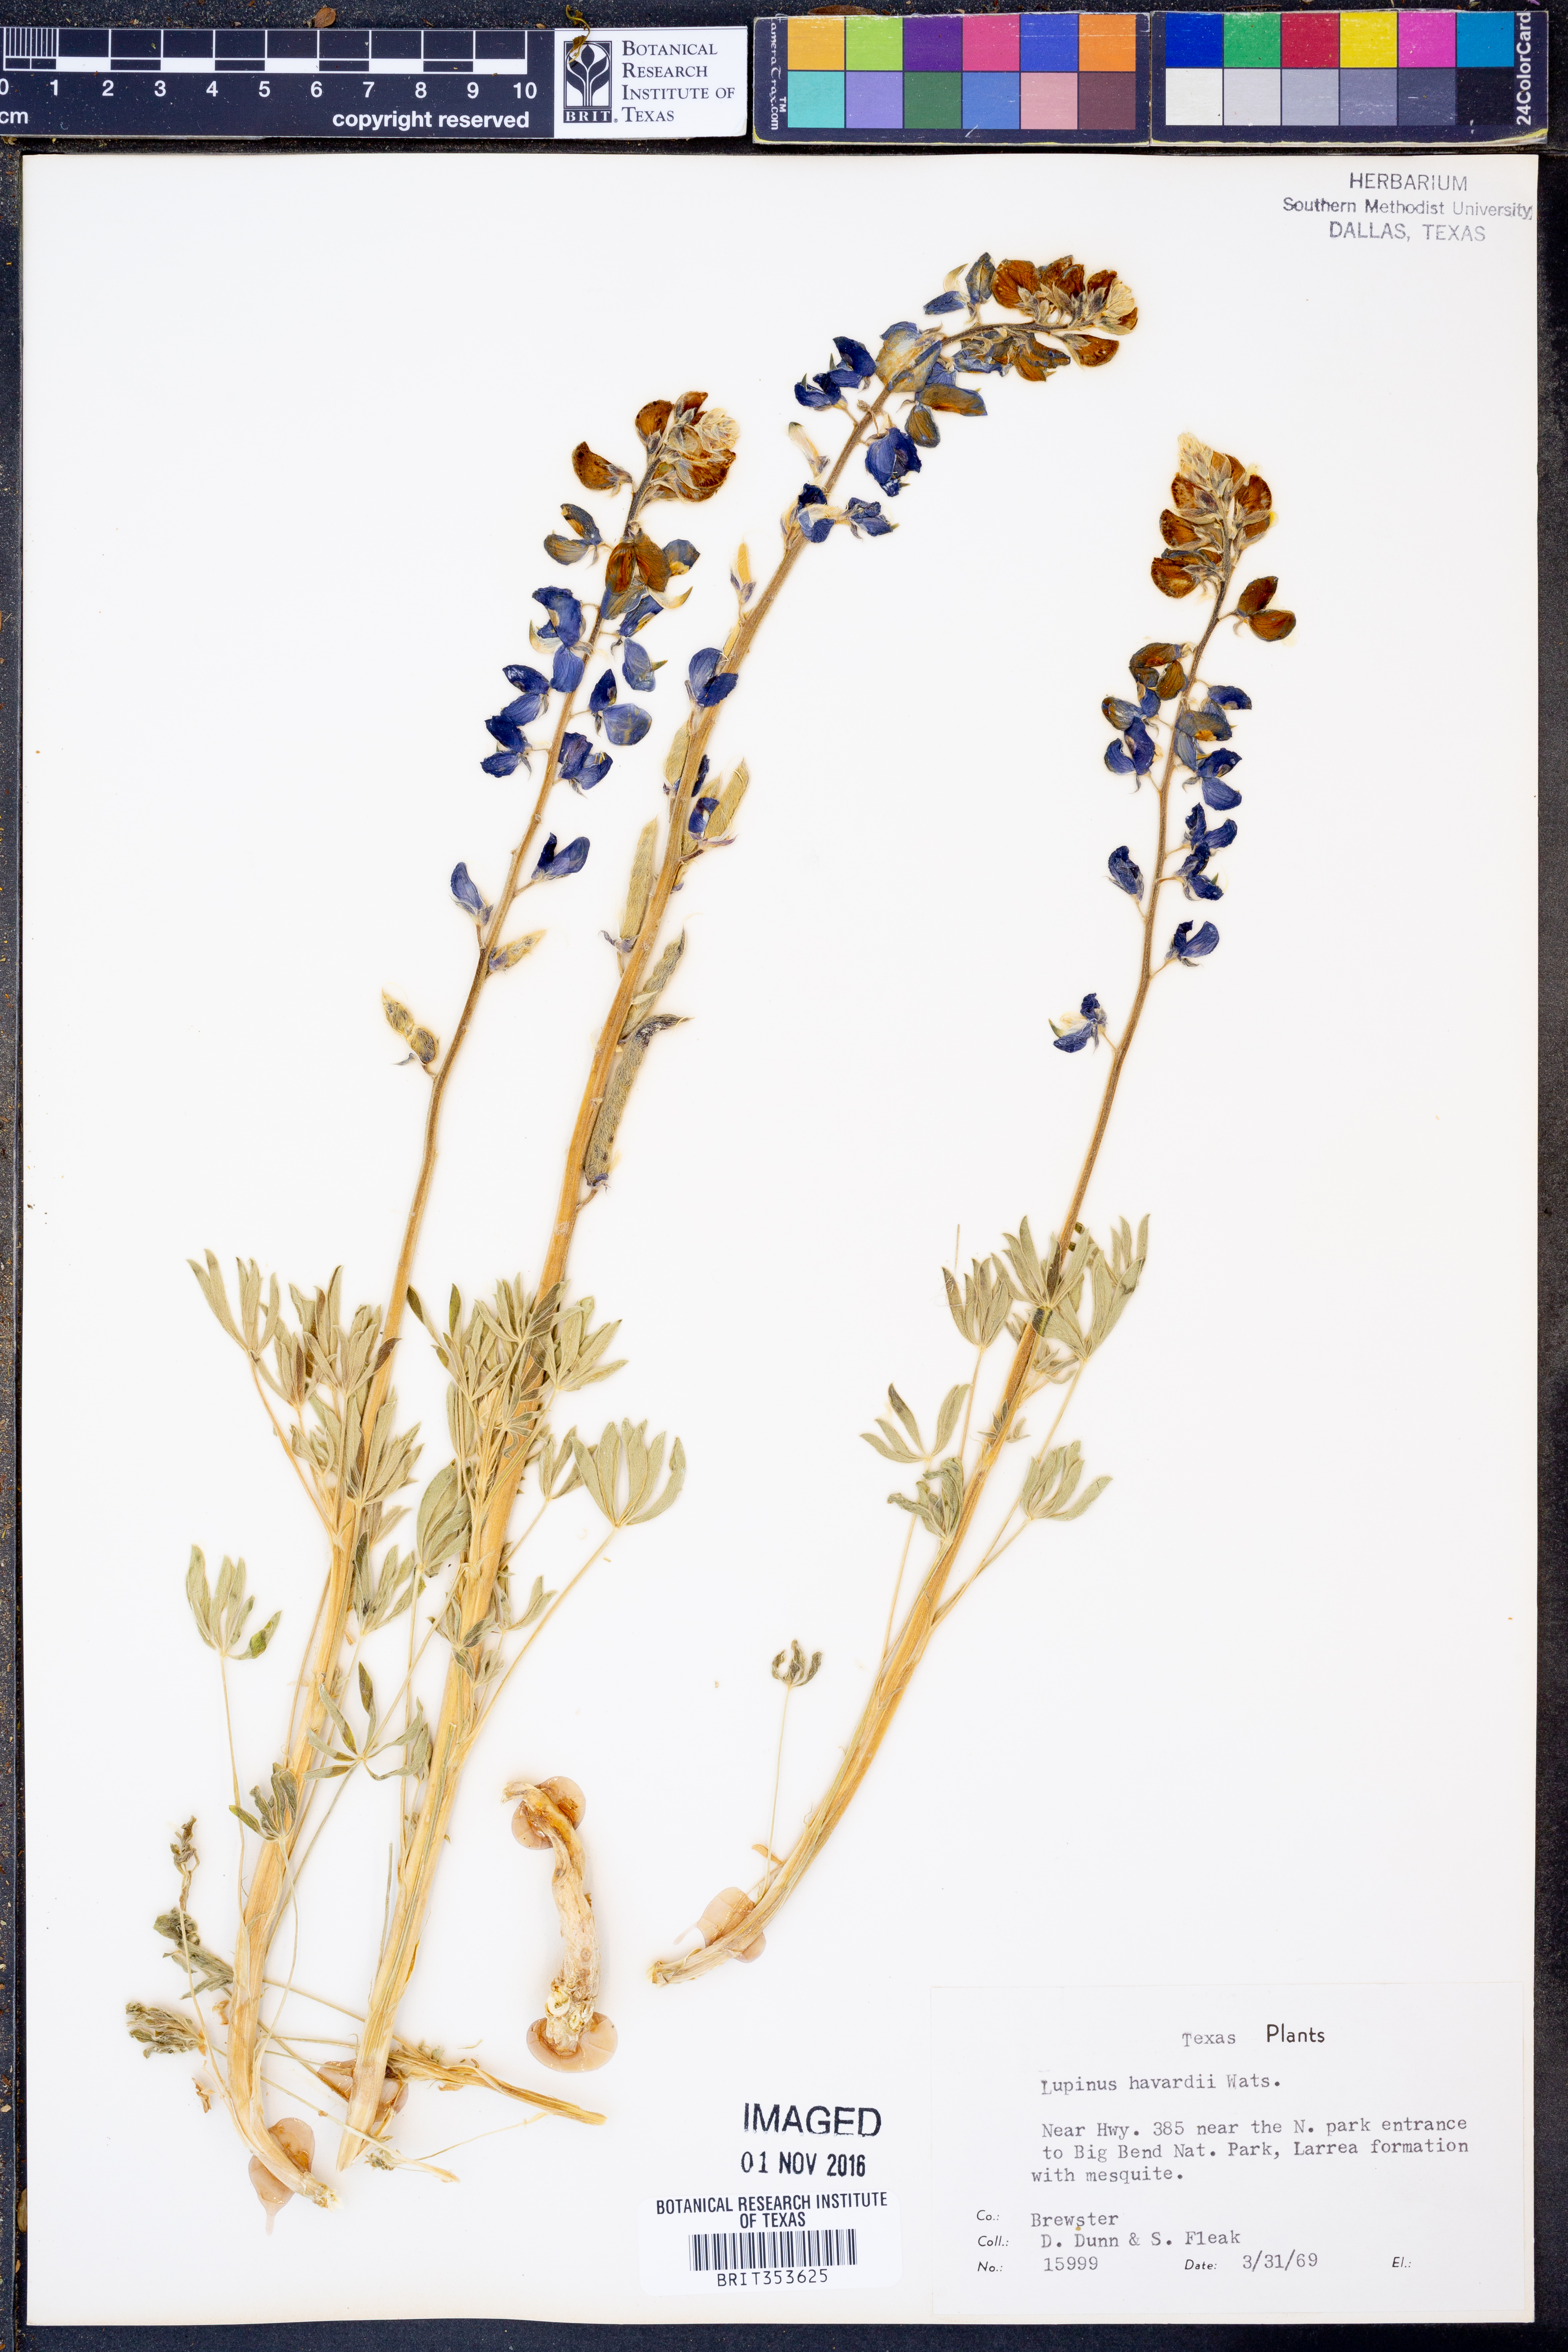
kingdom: Plantae
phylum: Tracheophyta
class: Magnoliopsida
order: Fabales
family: Fabaceae
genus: Lupinus
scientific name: Lupinus havardii
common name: Chisos bluebonnet
